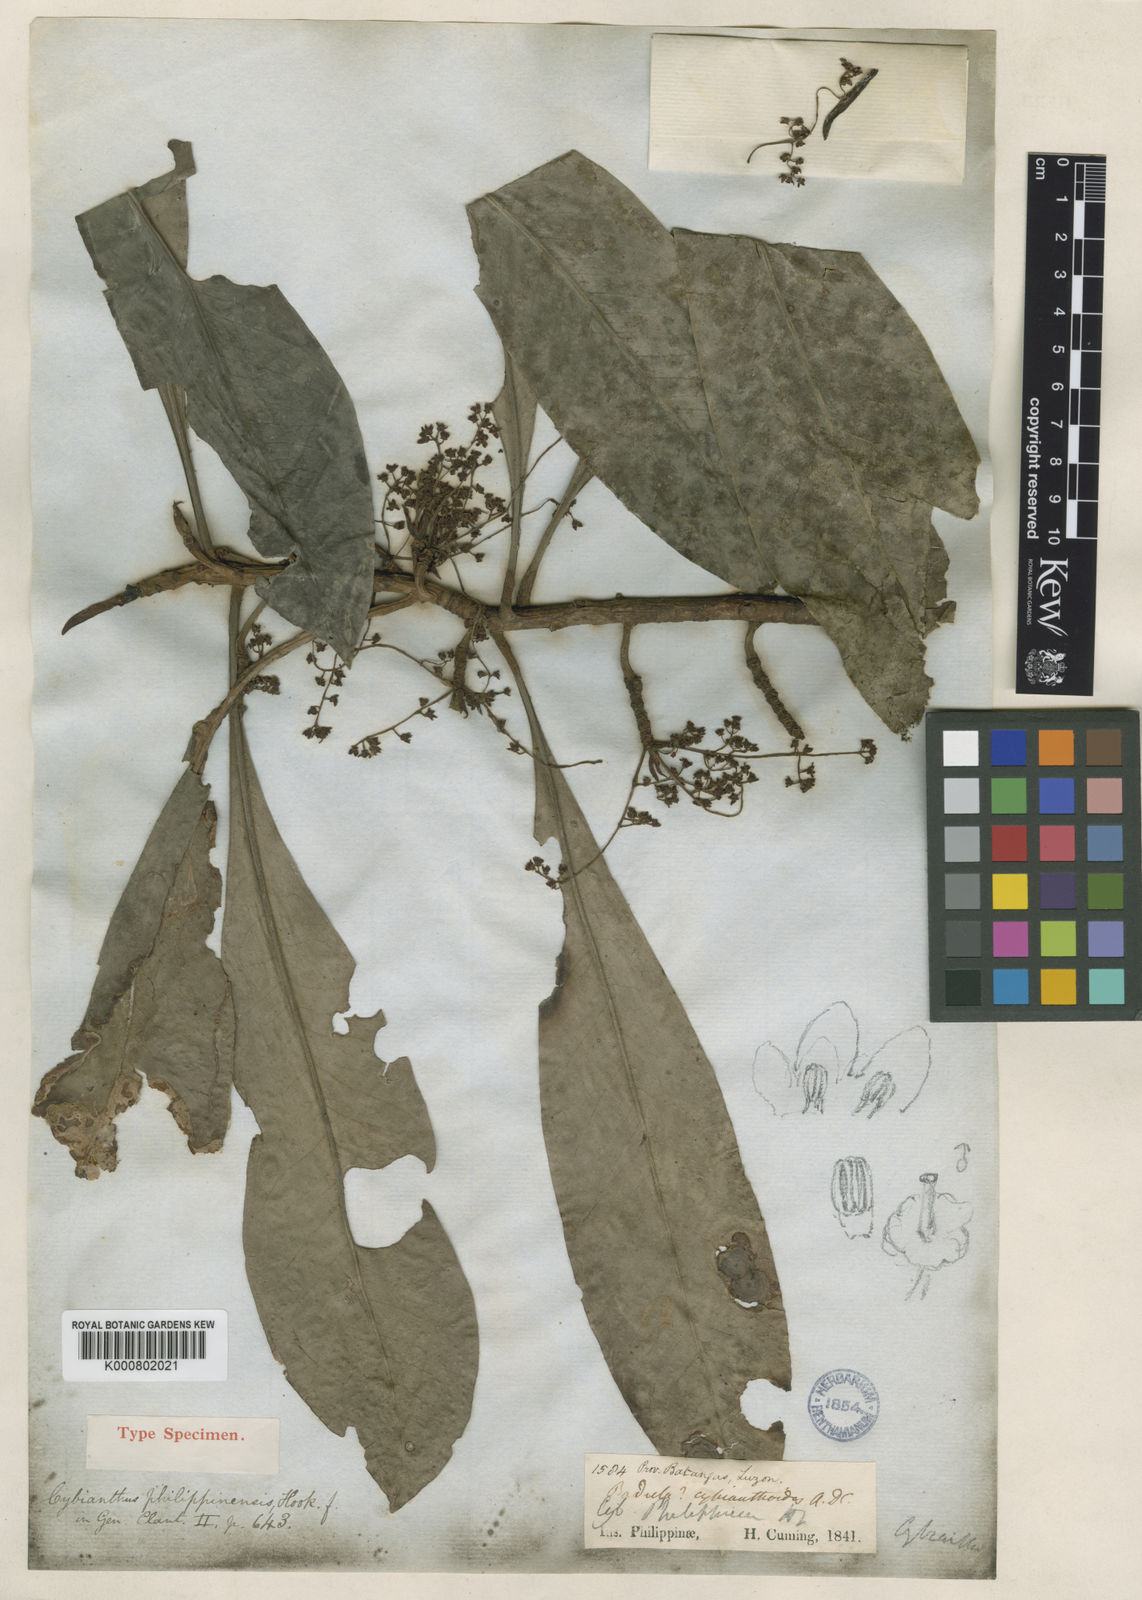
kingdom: Plantae
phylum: Tracheophyta
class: Magnoliopsida
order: Ericales
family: Primulaceae
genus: Discocalyx
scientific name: Discocalyx cybianthoides
